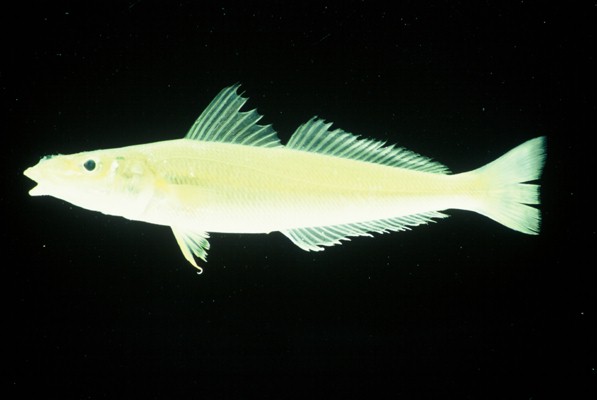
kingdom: Animalia
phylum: Chordata
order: Perciformes
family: Sillaginidae
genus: Sillago
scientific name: Sillago sihama
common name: Silver sillago
